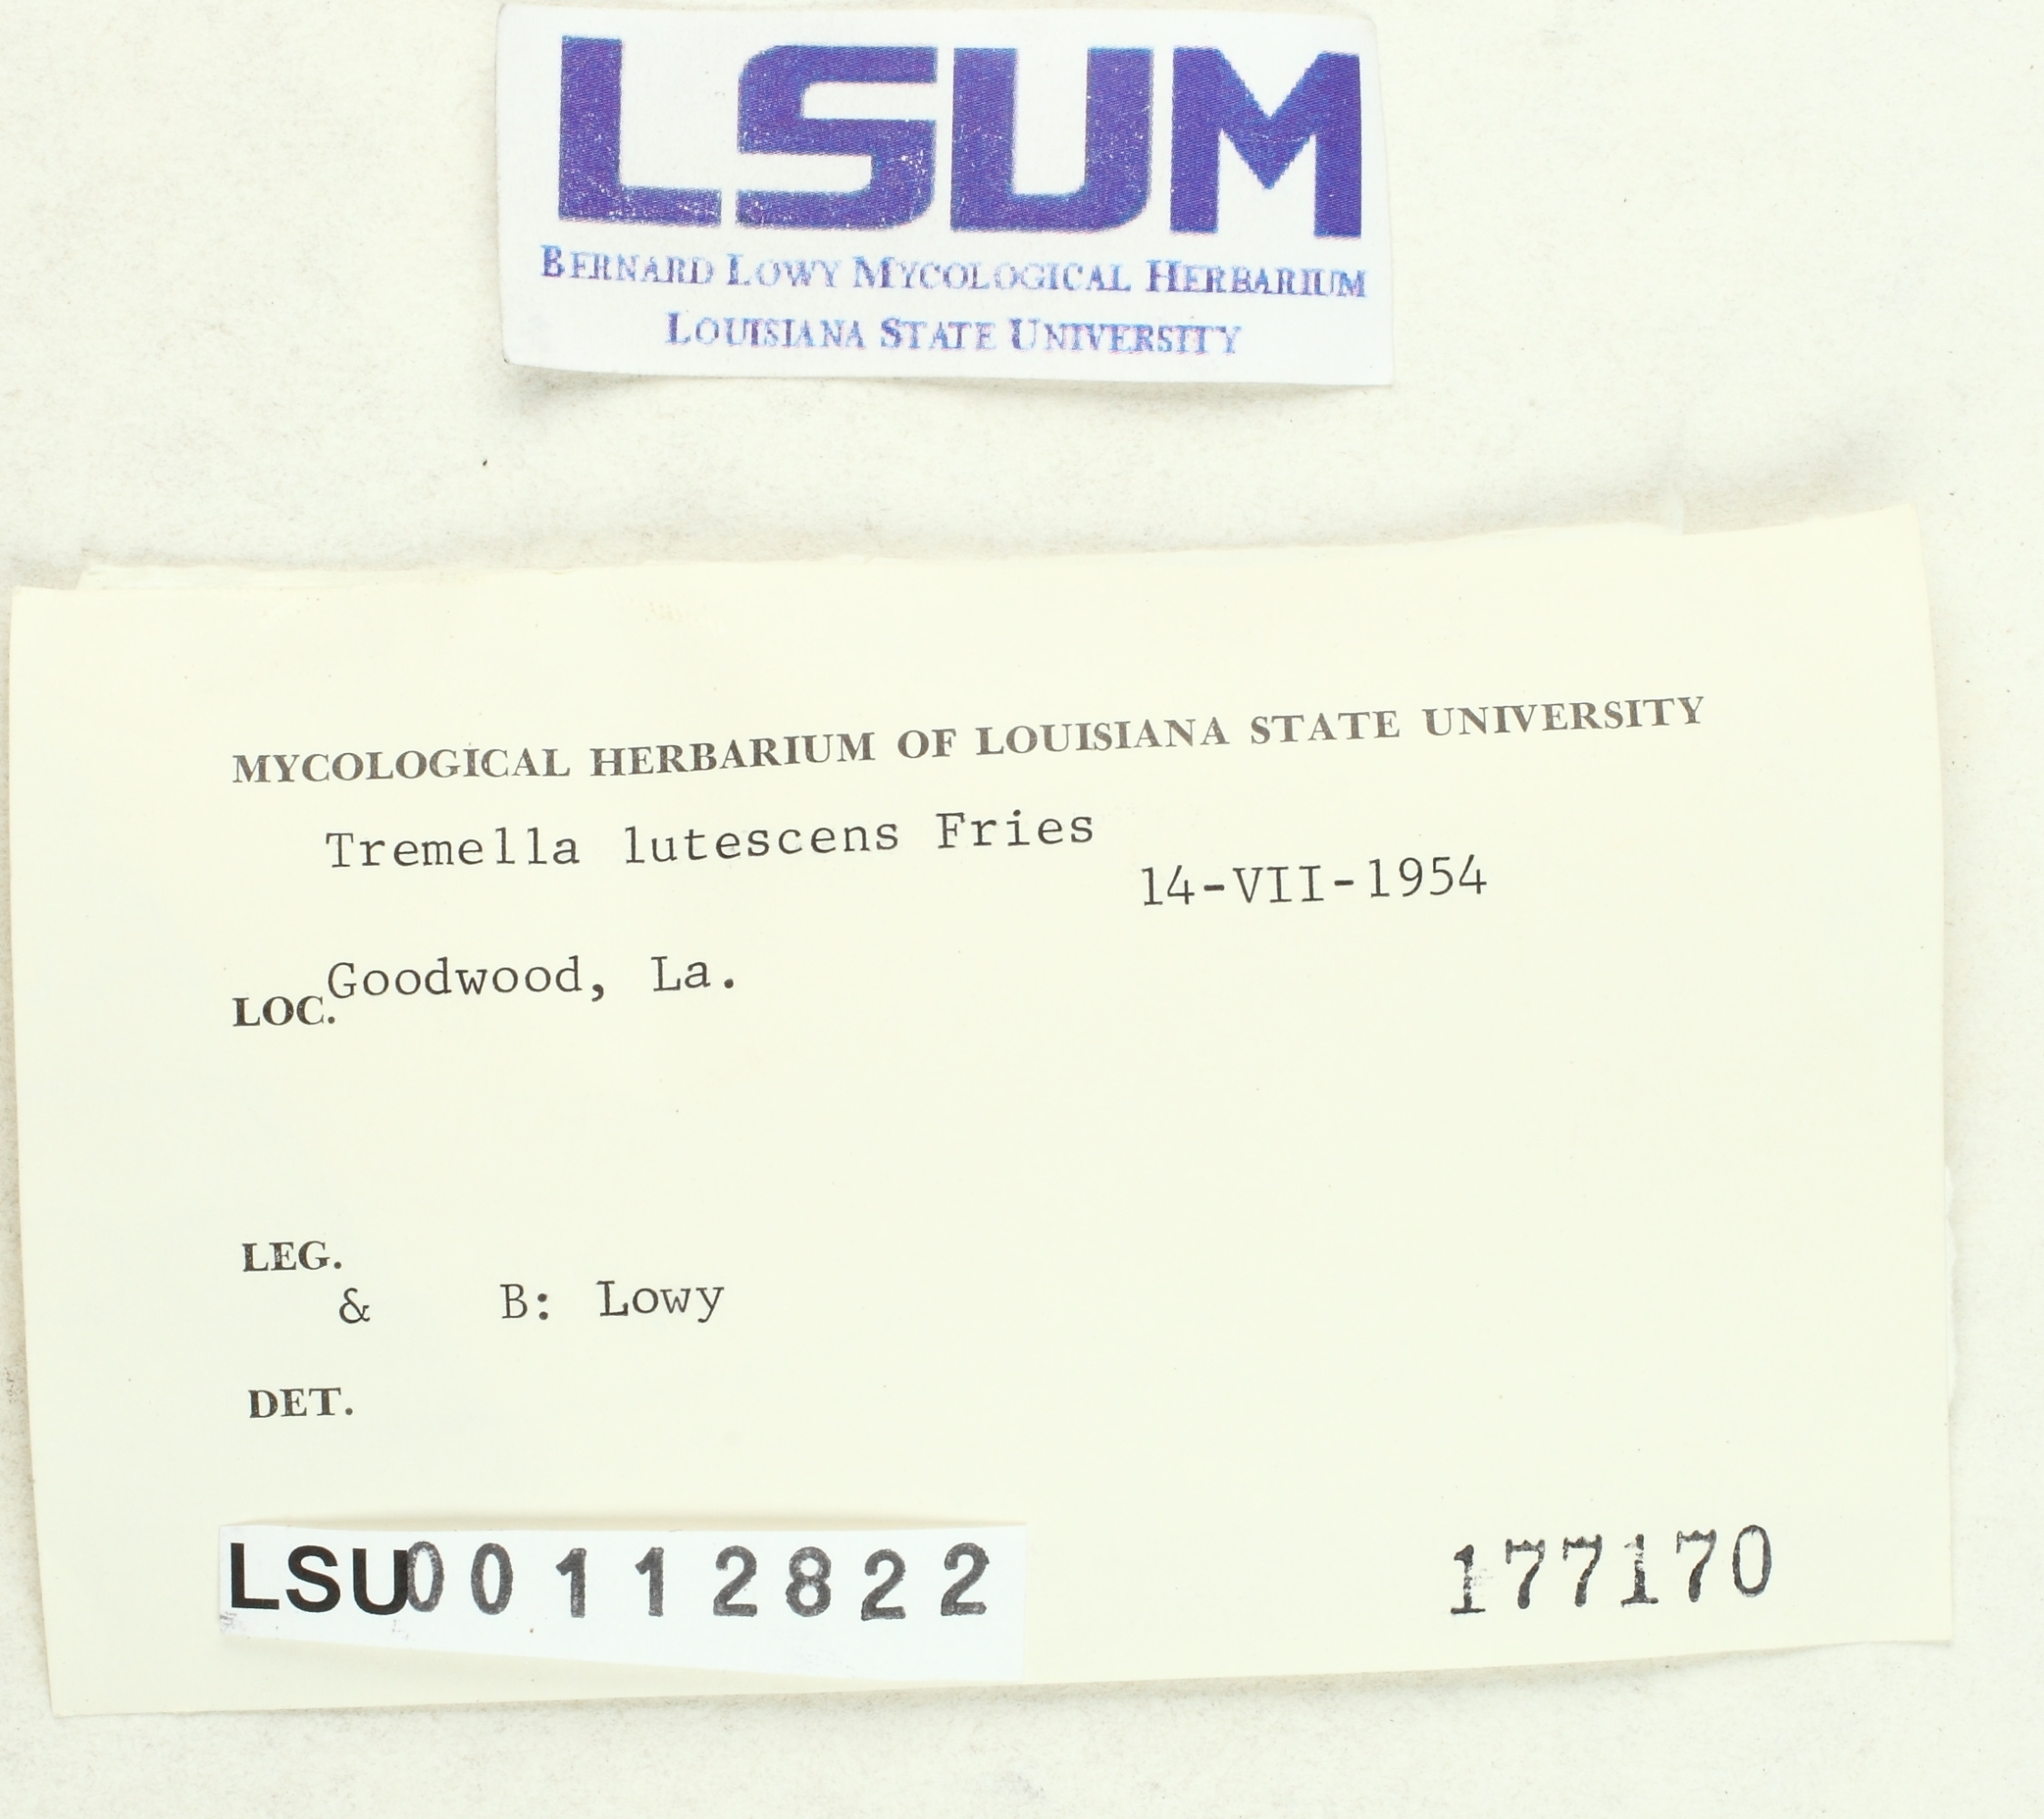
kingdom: Fungi
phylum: Basidiomycota
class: Tremellomycetes
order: Tremellales
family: Tremellaceae
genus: Tremella
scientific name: Tremella mesenterica
